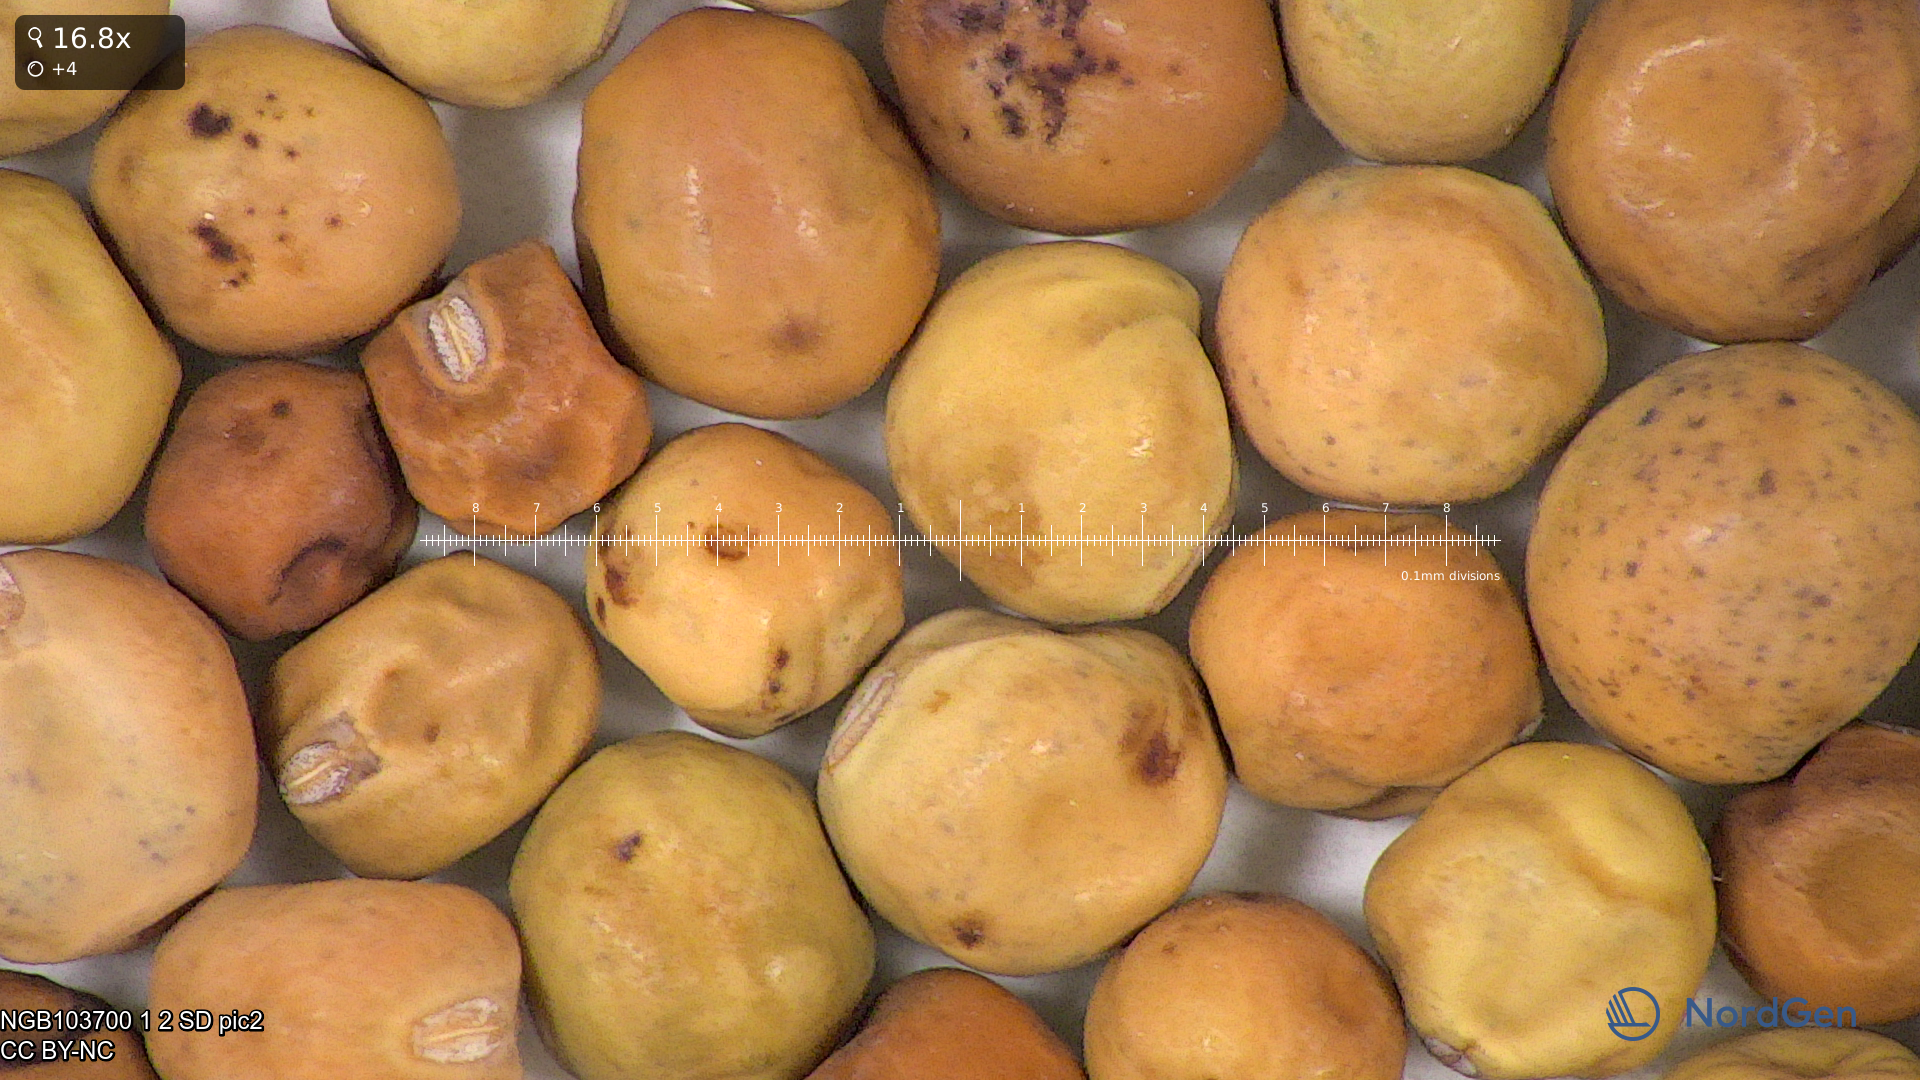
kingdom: Plantae
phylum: Tracheophyta
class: Magnoliopsida
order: Fabales
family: Fabaceae
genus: Lathyrus
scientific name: Lathyrus oleraceus
